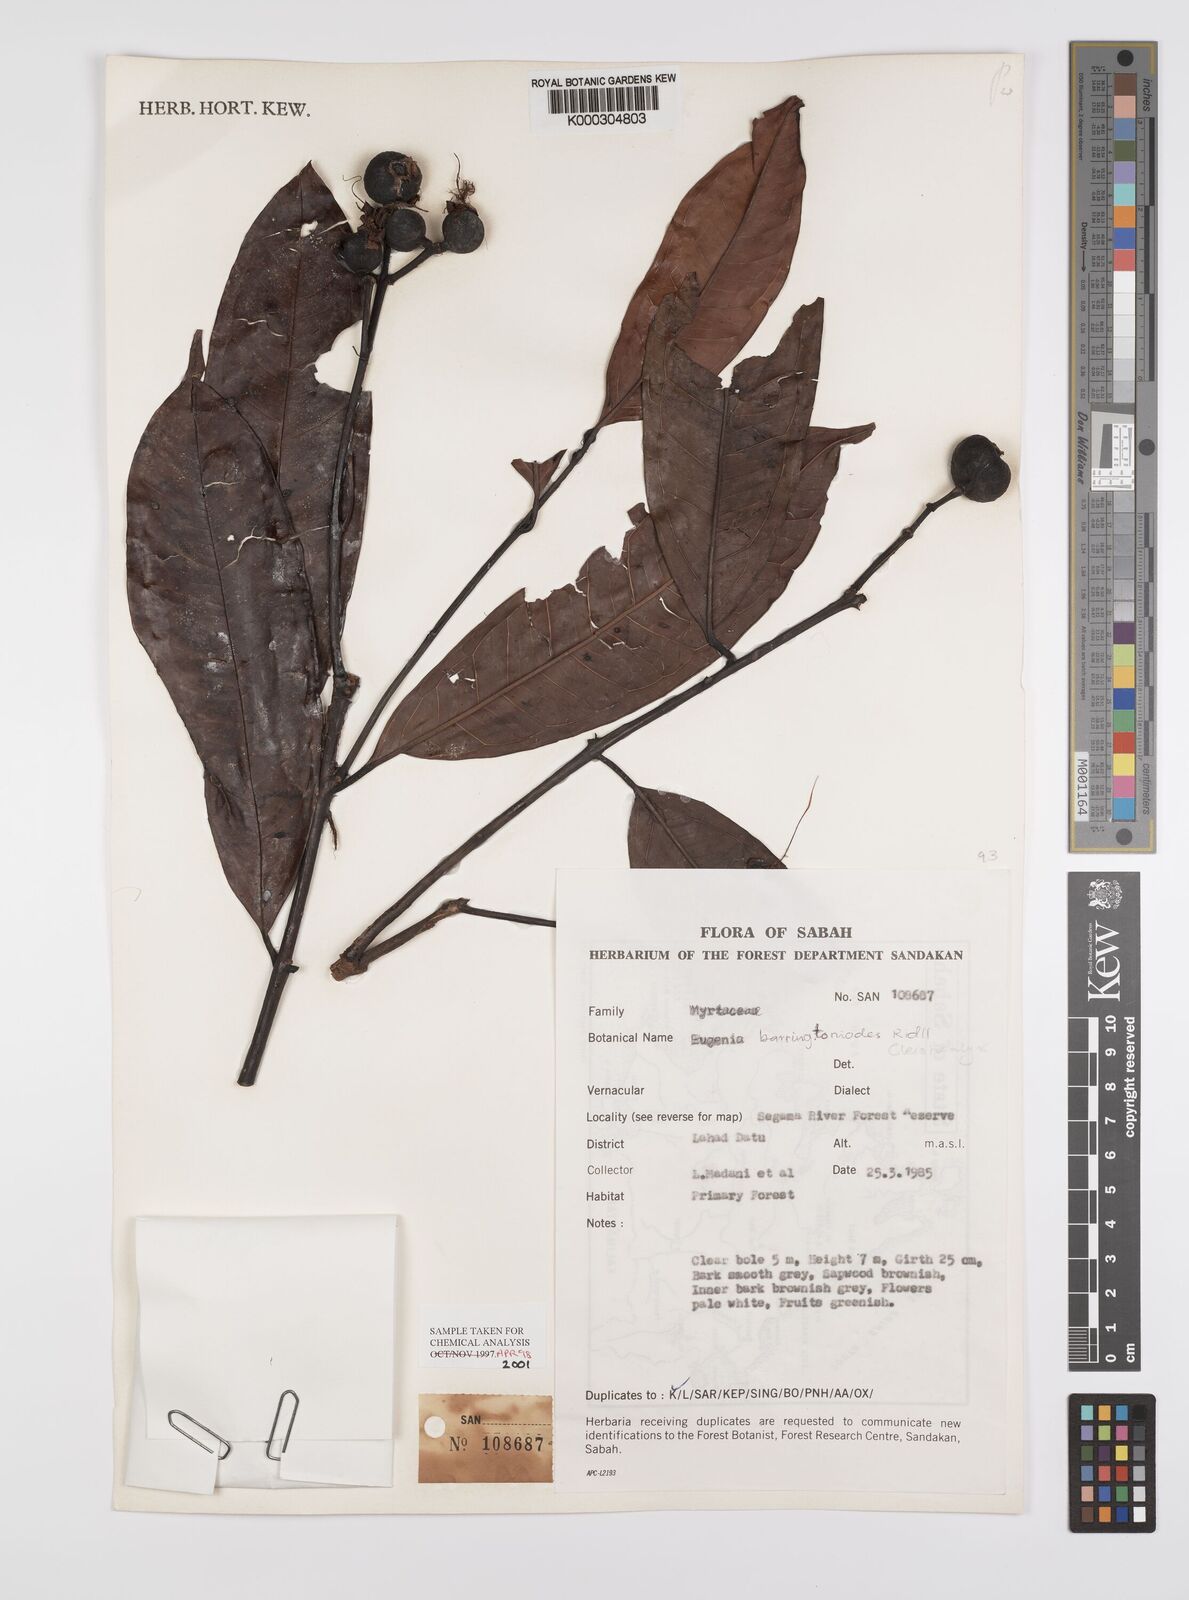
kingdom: Plantae
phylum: Tracheophyta
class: Magnoliopsida
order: Myrtales
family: Myrtaceae
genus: Syzygium
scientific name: Syzygium barringtonioides
